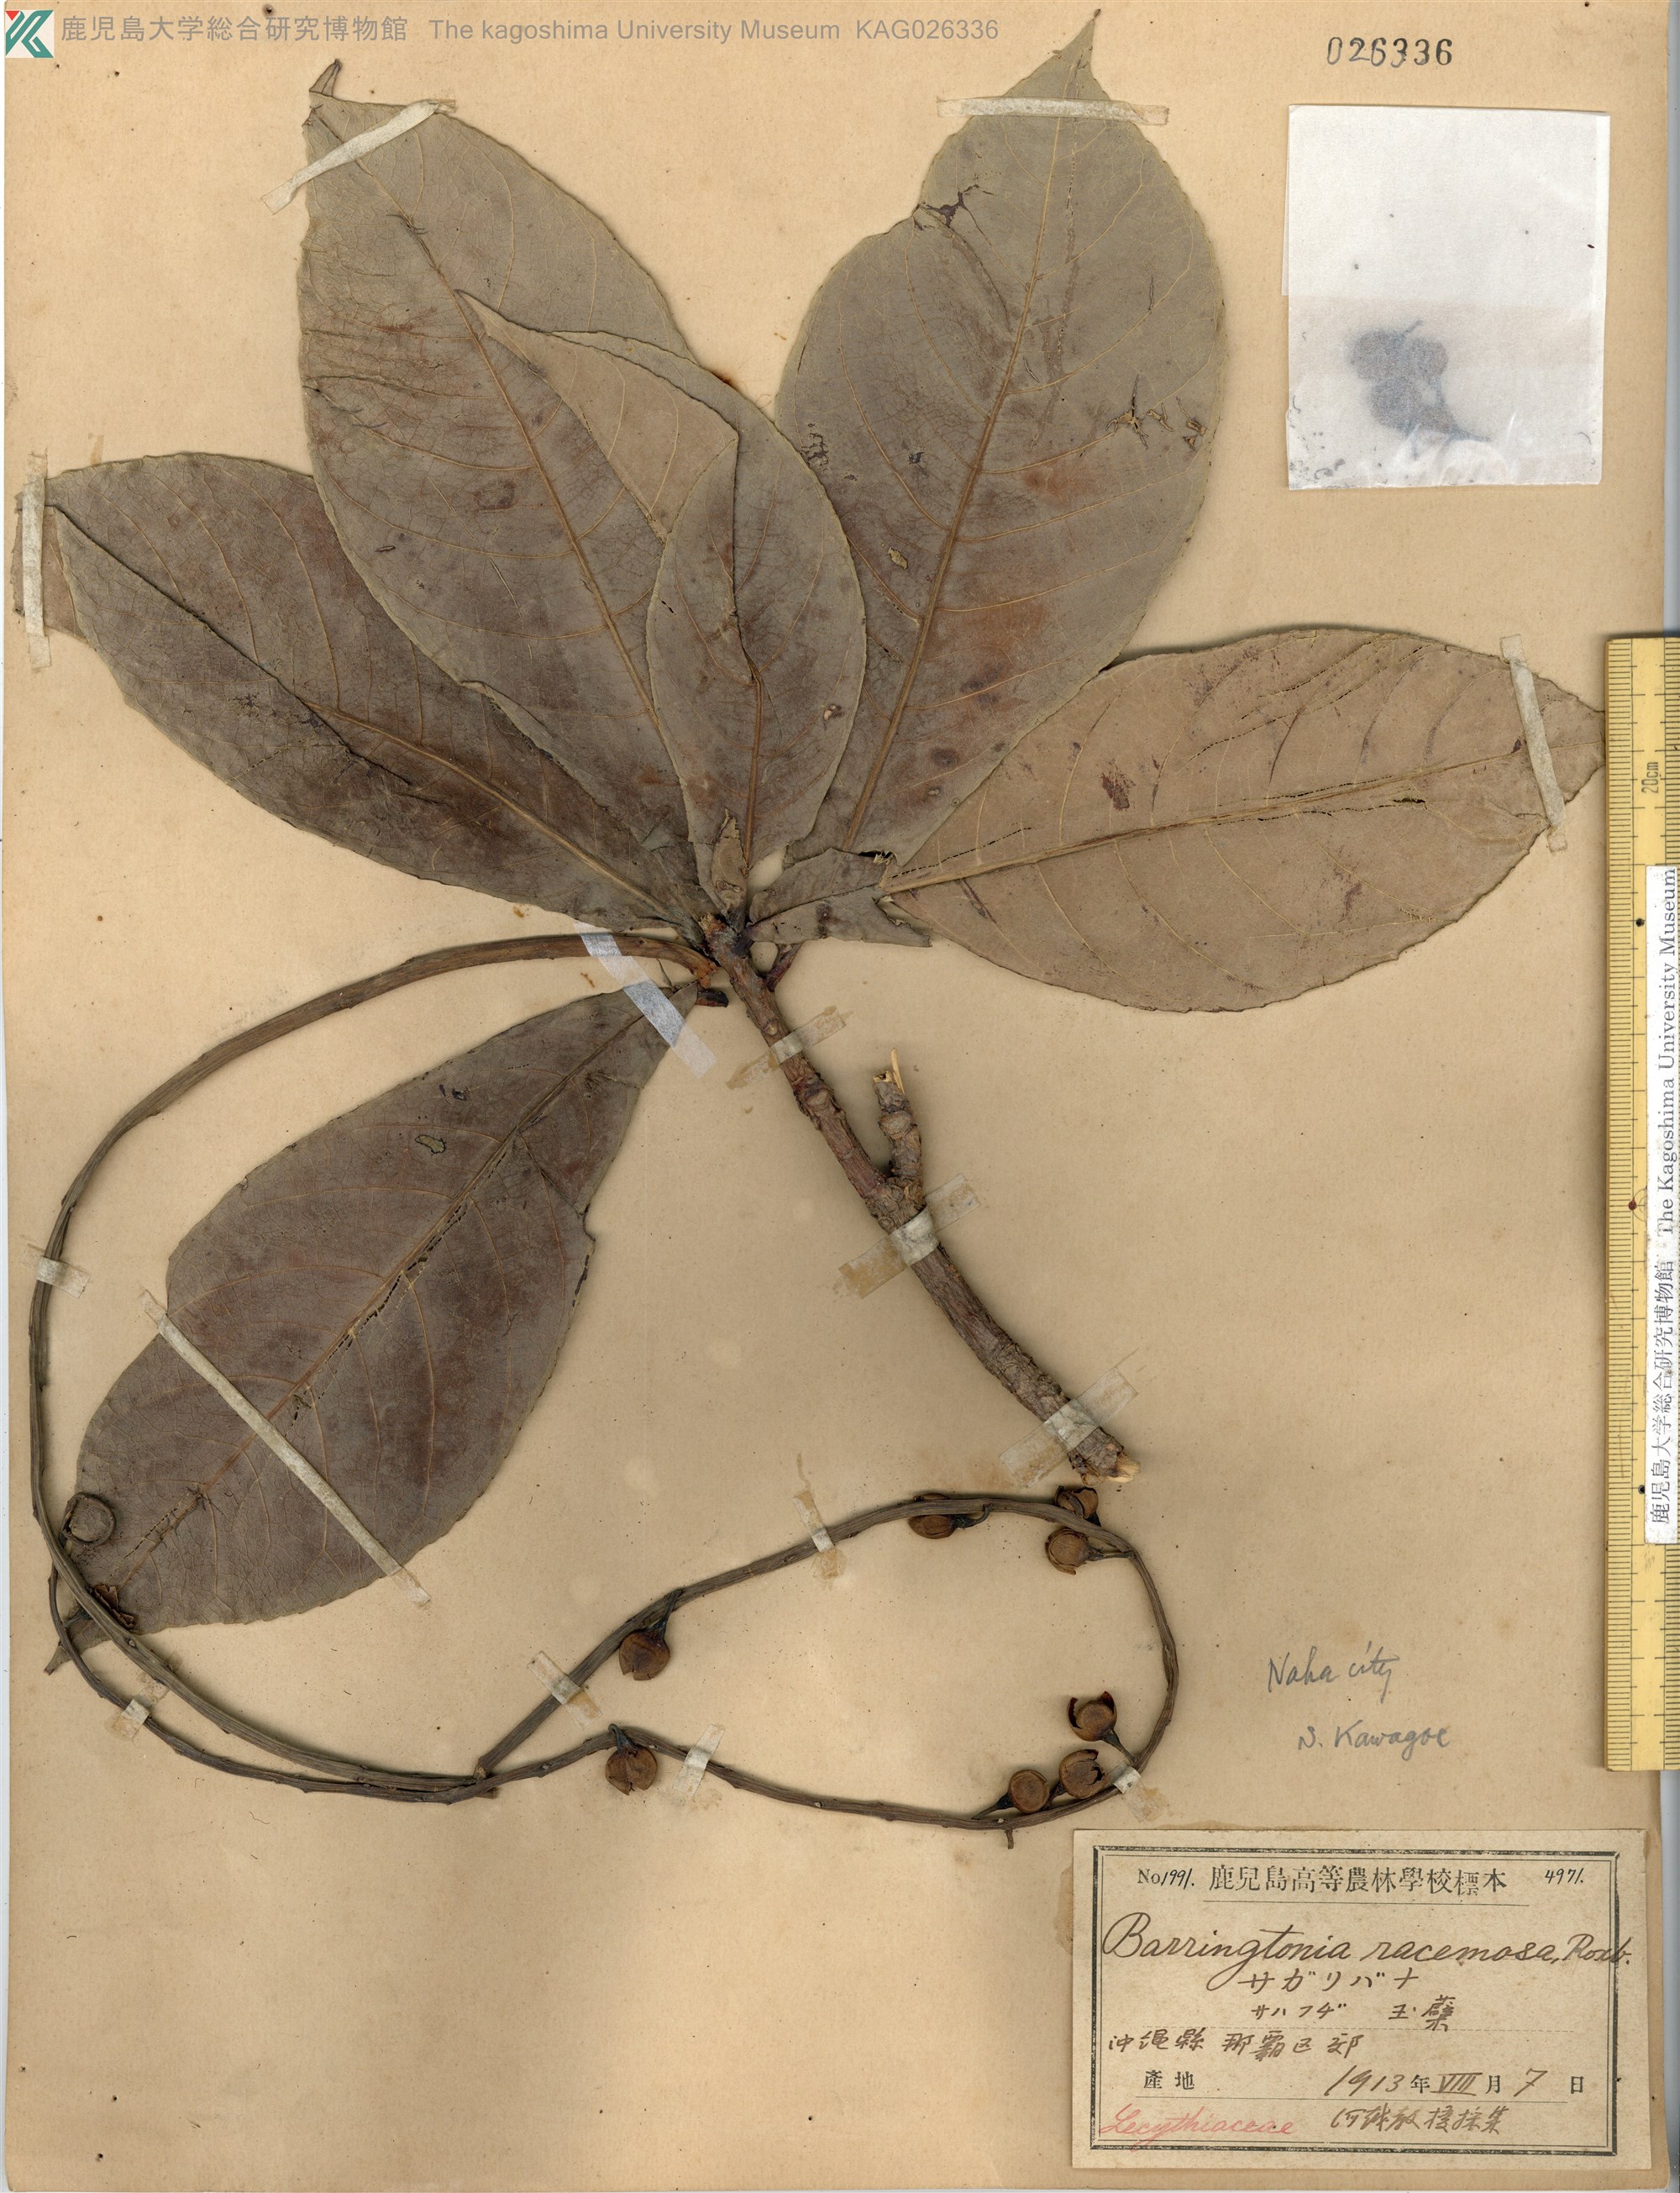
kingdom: Plantae
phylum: Tracheophyta
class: Magnoliopsida
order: Ericales
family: Lecythidaceae
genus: Barringtonia
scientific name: Barringtonia racemosa
